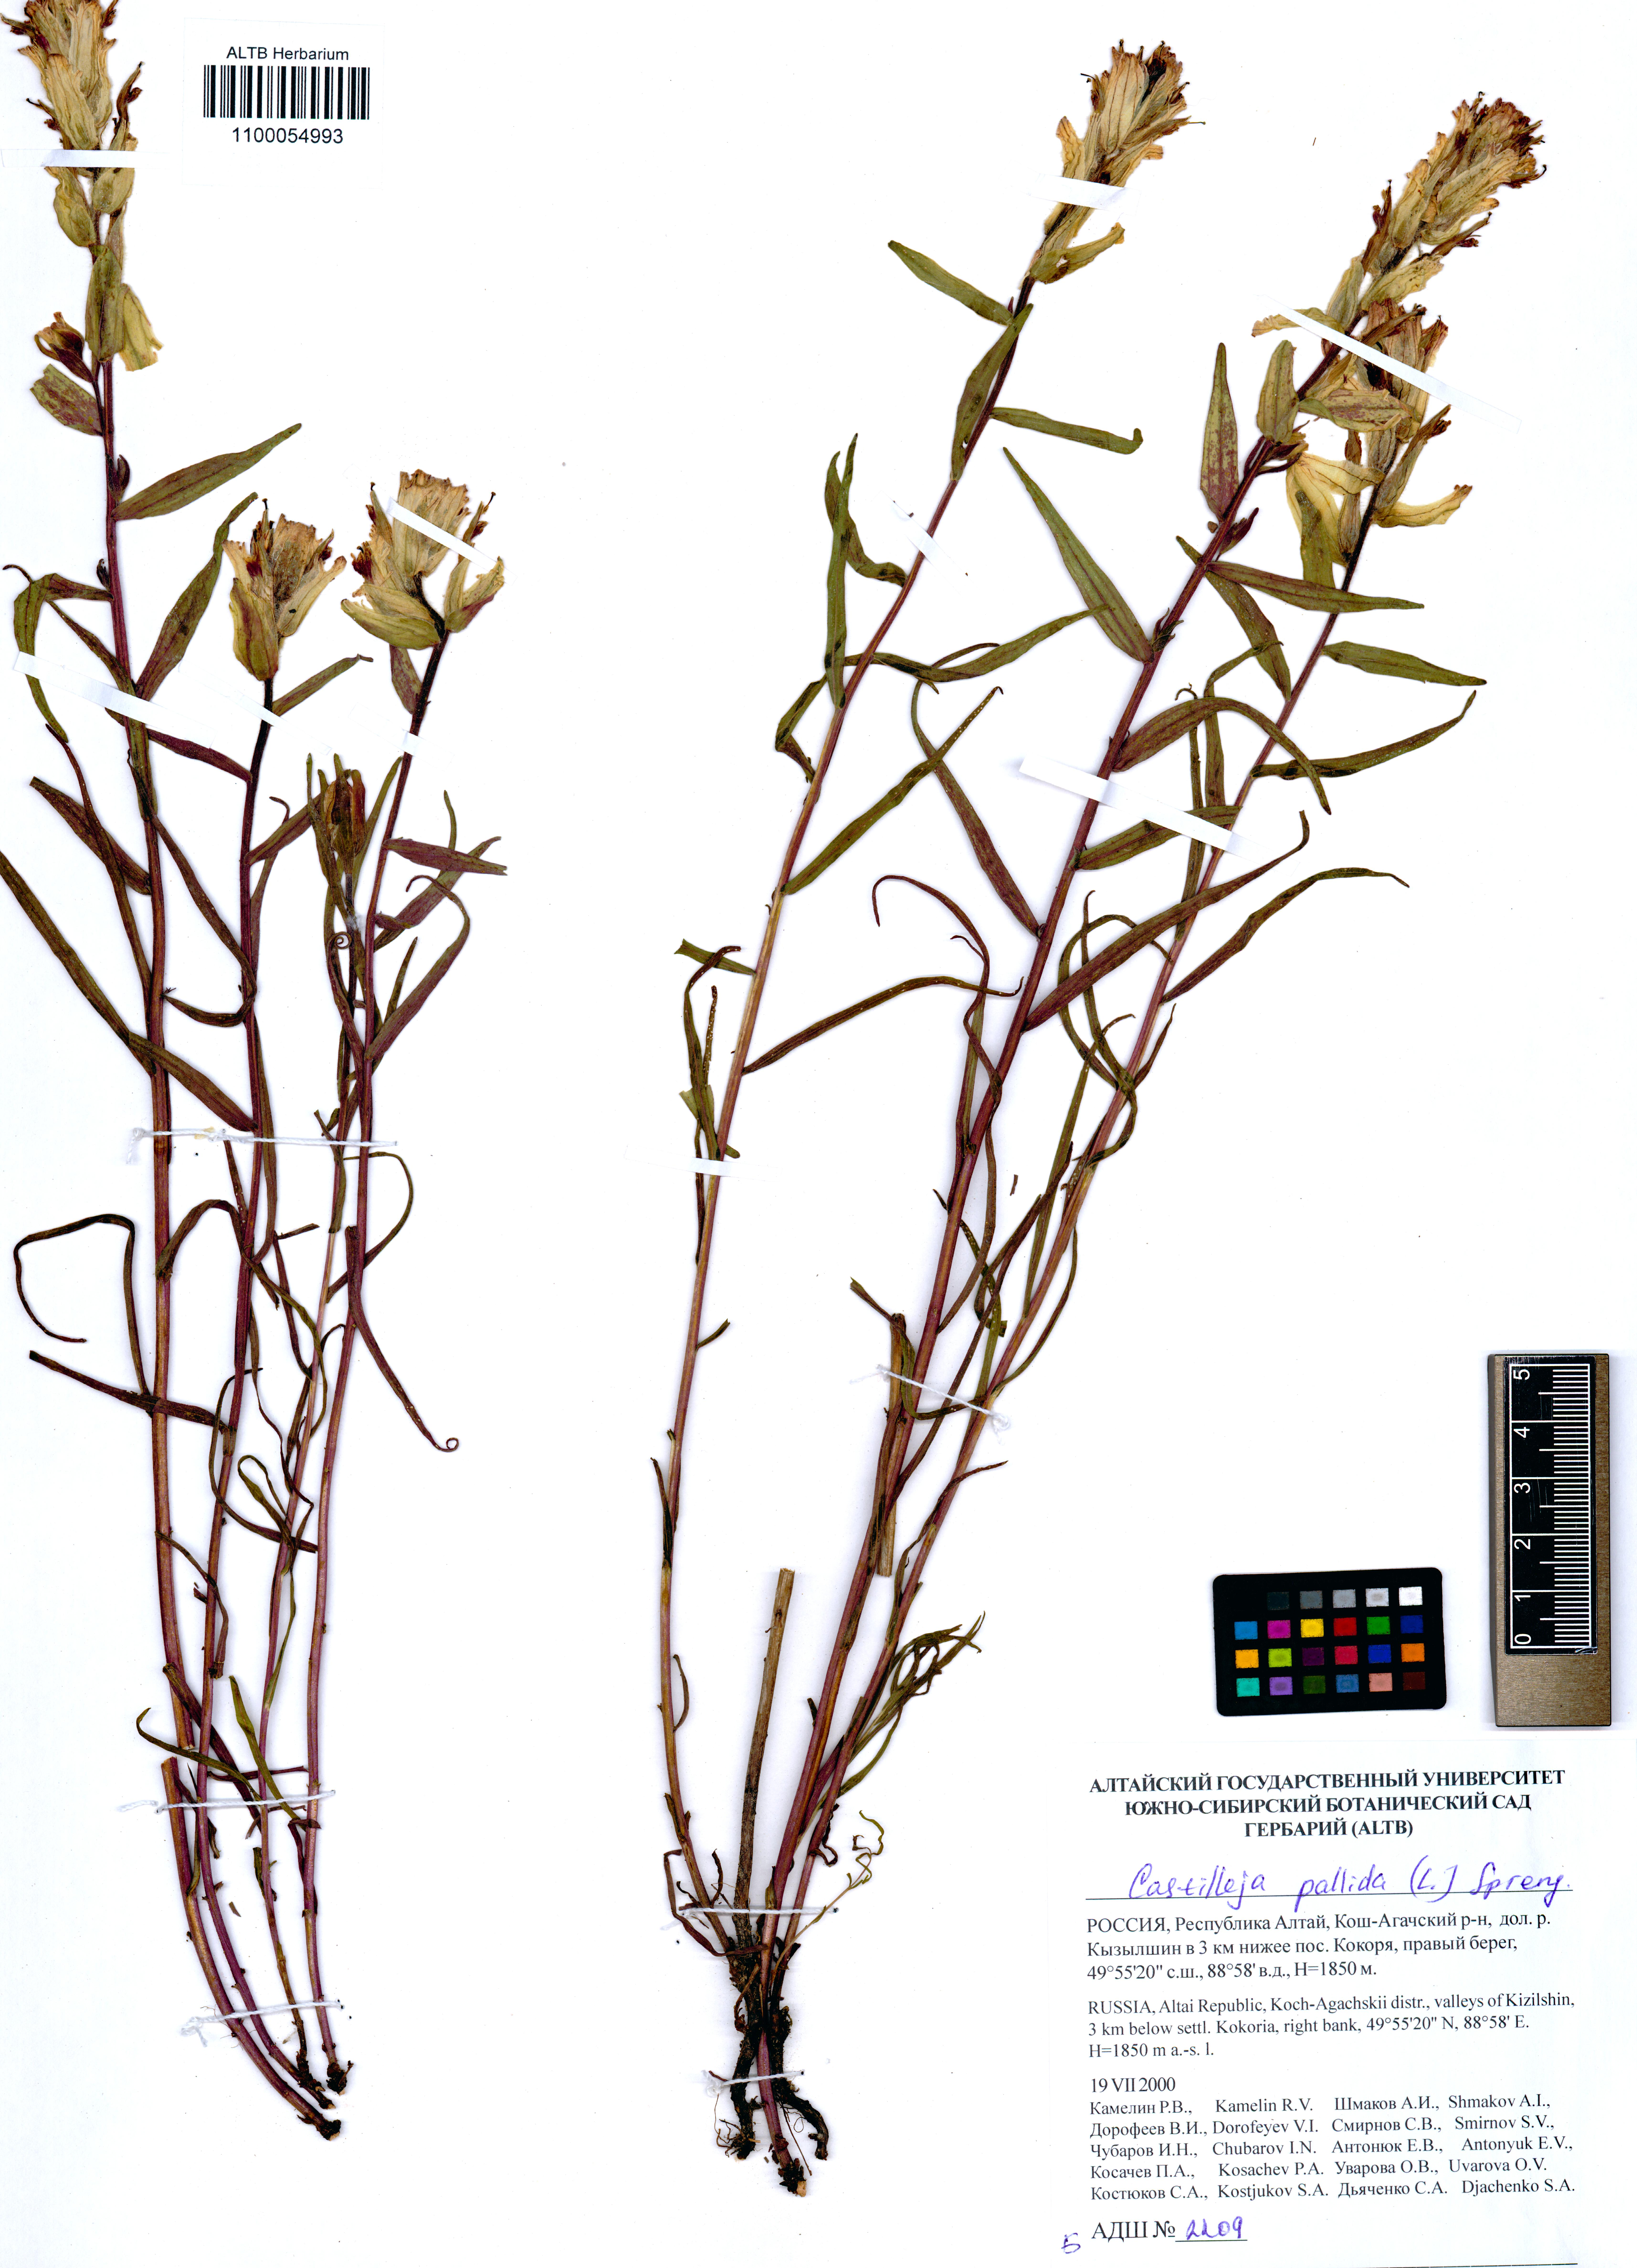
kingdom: Plantae
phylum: Tracheophyta
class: Magnoliopsida
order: Lamiales
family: Orobanchaceae
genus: Castilleja
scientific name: Castilleja pallida
